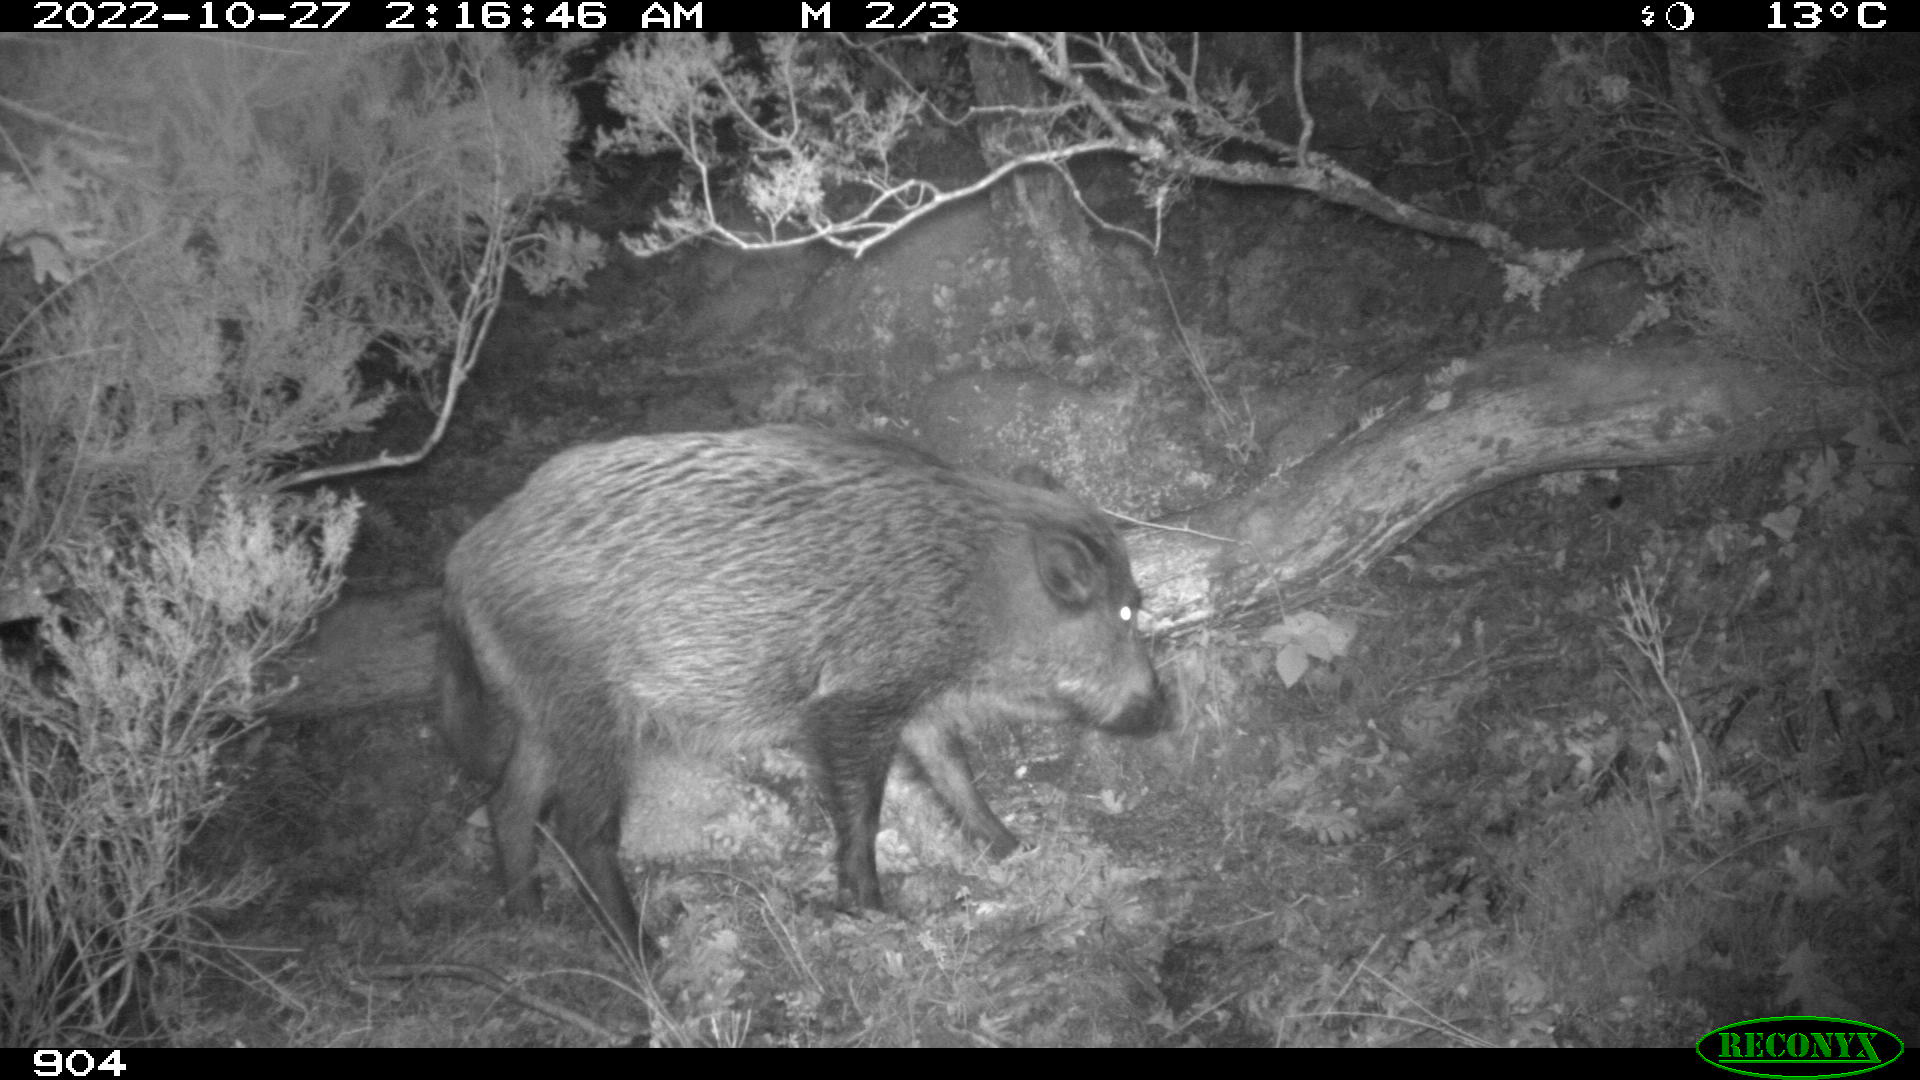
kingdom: Animalia
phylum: Chordata
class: Mammalia
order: Artiodactyla
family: Suidae
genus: Sus
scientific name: Sus scrofa
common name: Wild boar
